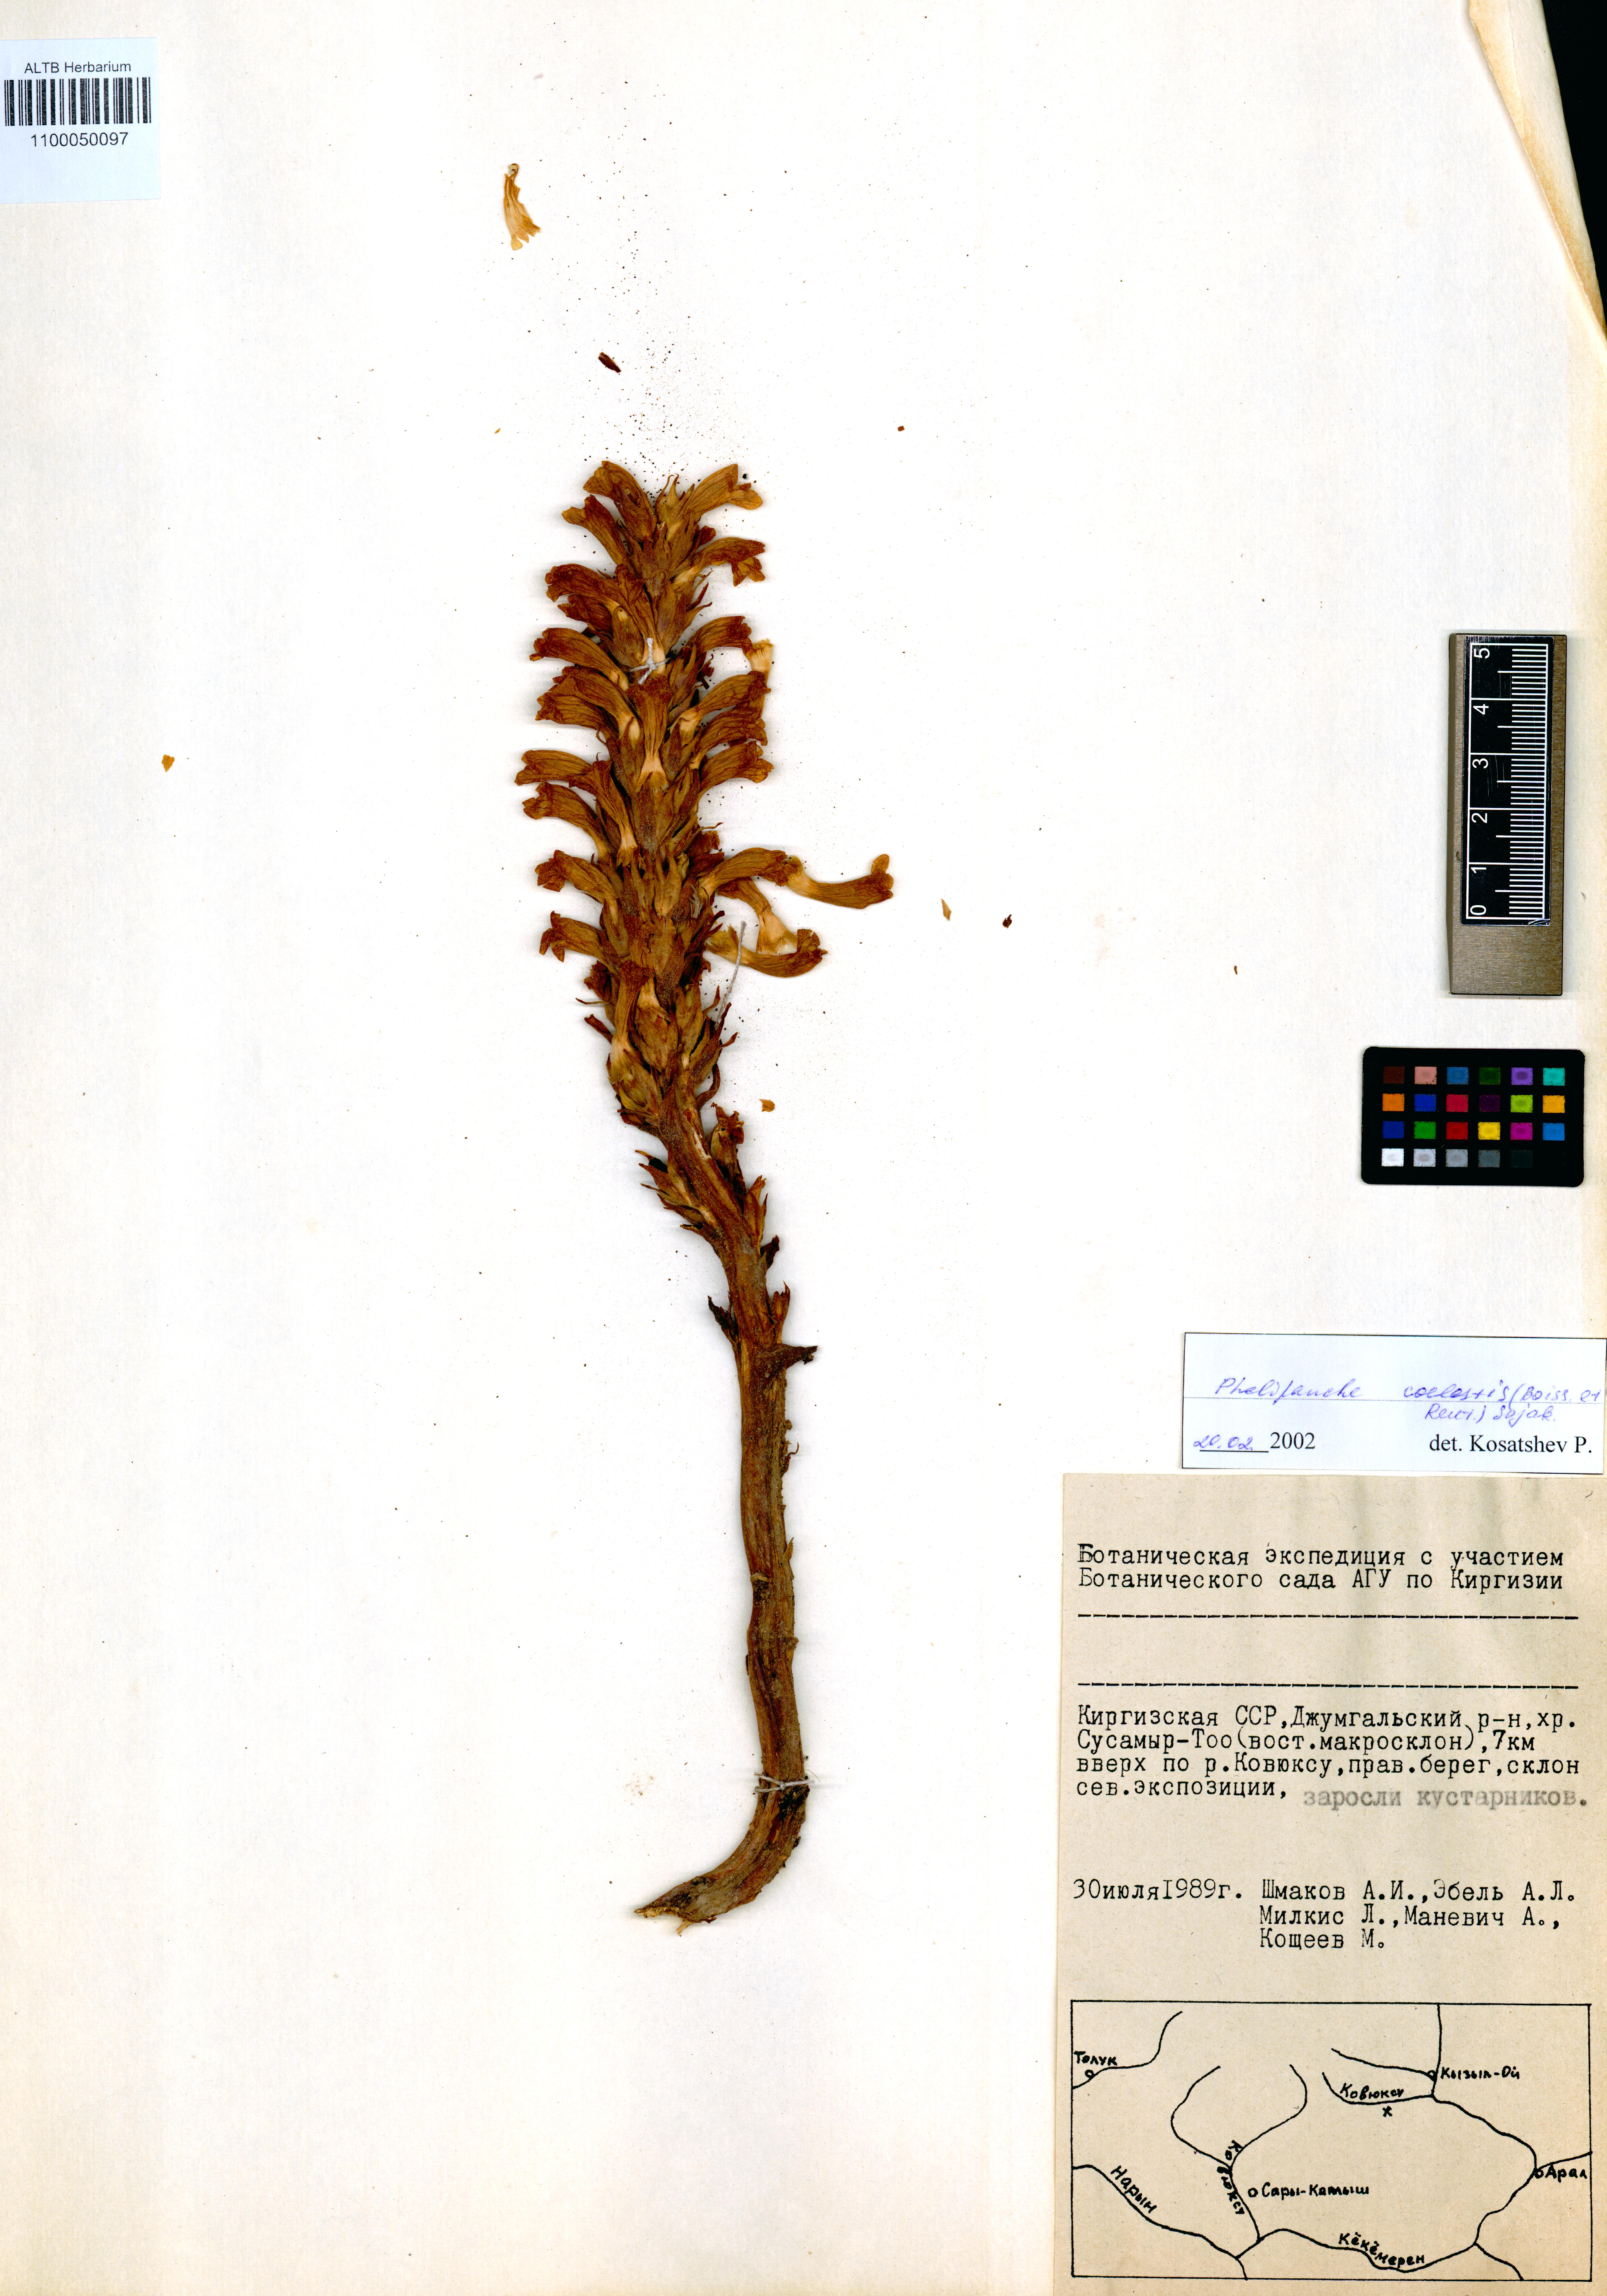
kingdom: Plantae
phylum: Tracheophyta
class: Magnoliopsida
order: Lamiales
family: Orobanchaceae
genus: Phelipanche
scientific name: Phelipanche coelestis
